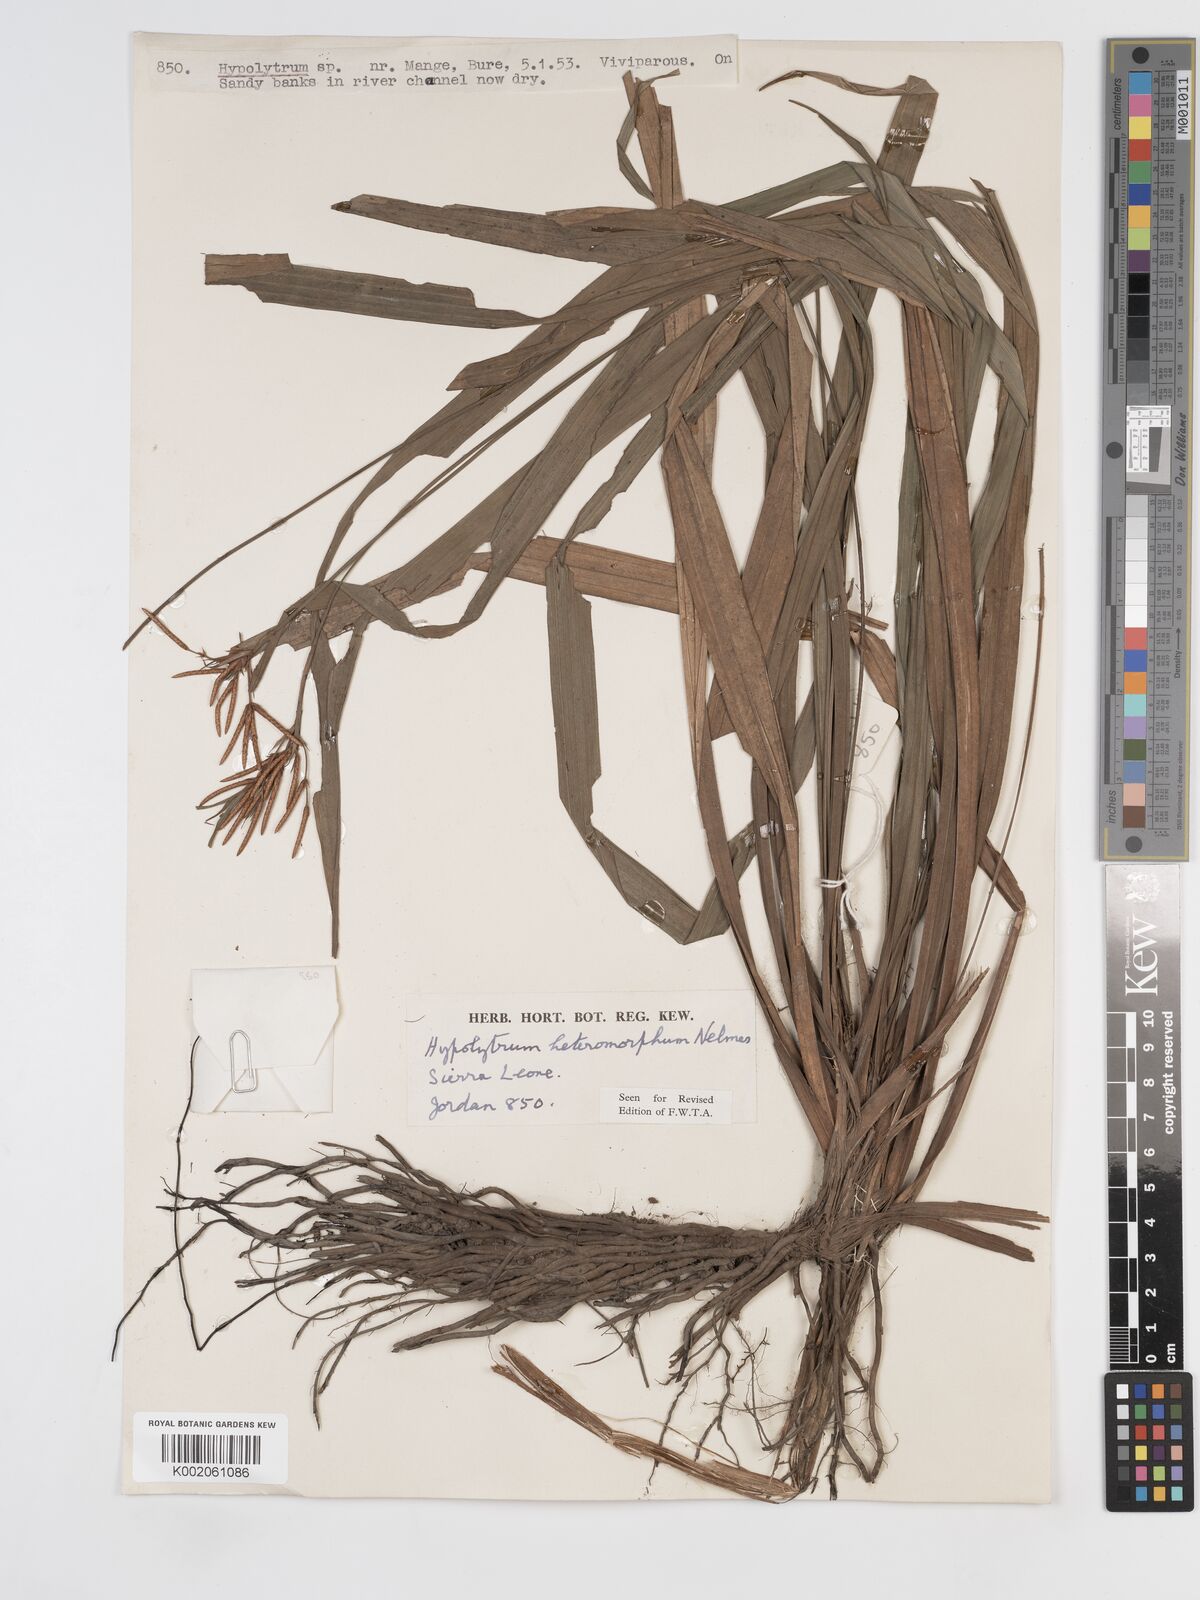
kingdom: Plantae
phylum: Tracheophyta
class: Liliopsida
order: Poales
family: Cyperaceae
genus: Hypolytrum
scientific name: Hypolytrum heteromorphum
